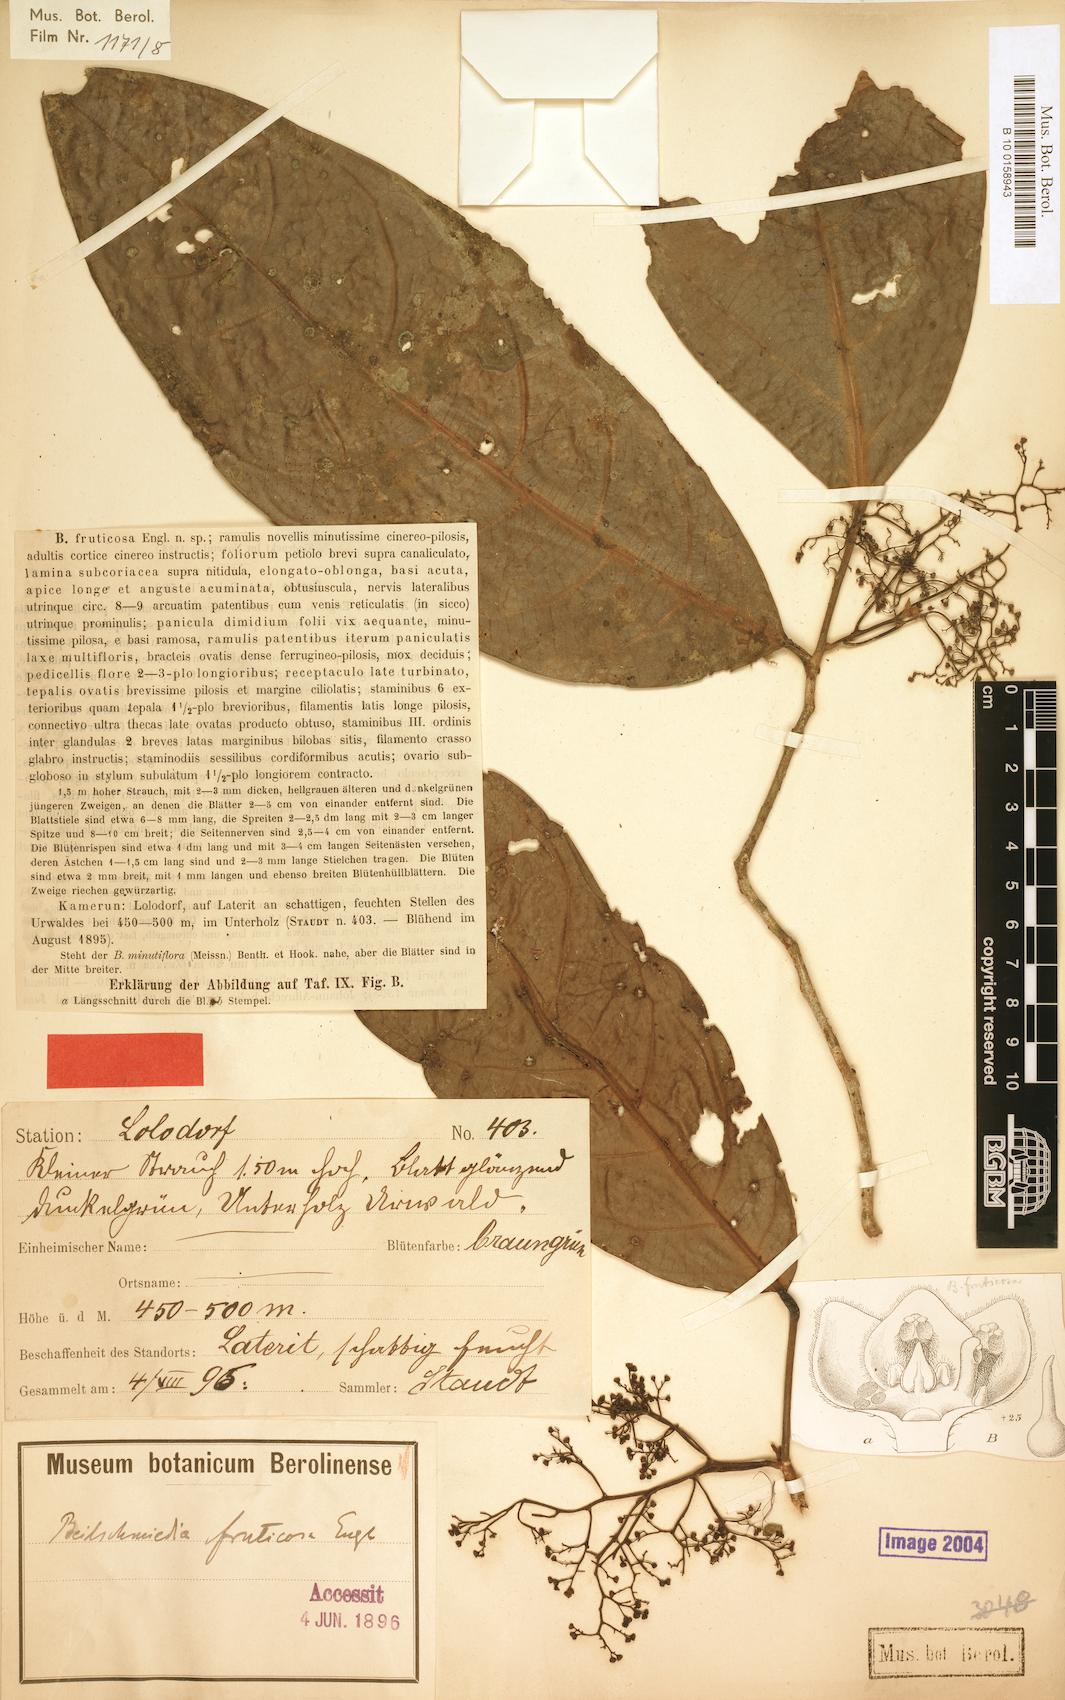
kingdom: Plantae
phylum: Tracheophyta
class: Magnoliopsida
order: Laurales
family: Lauraceae
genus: Beilschmiedia
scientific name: Beilschmiedia fruticosa
